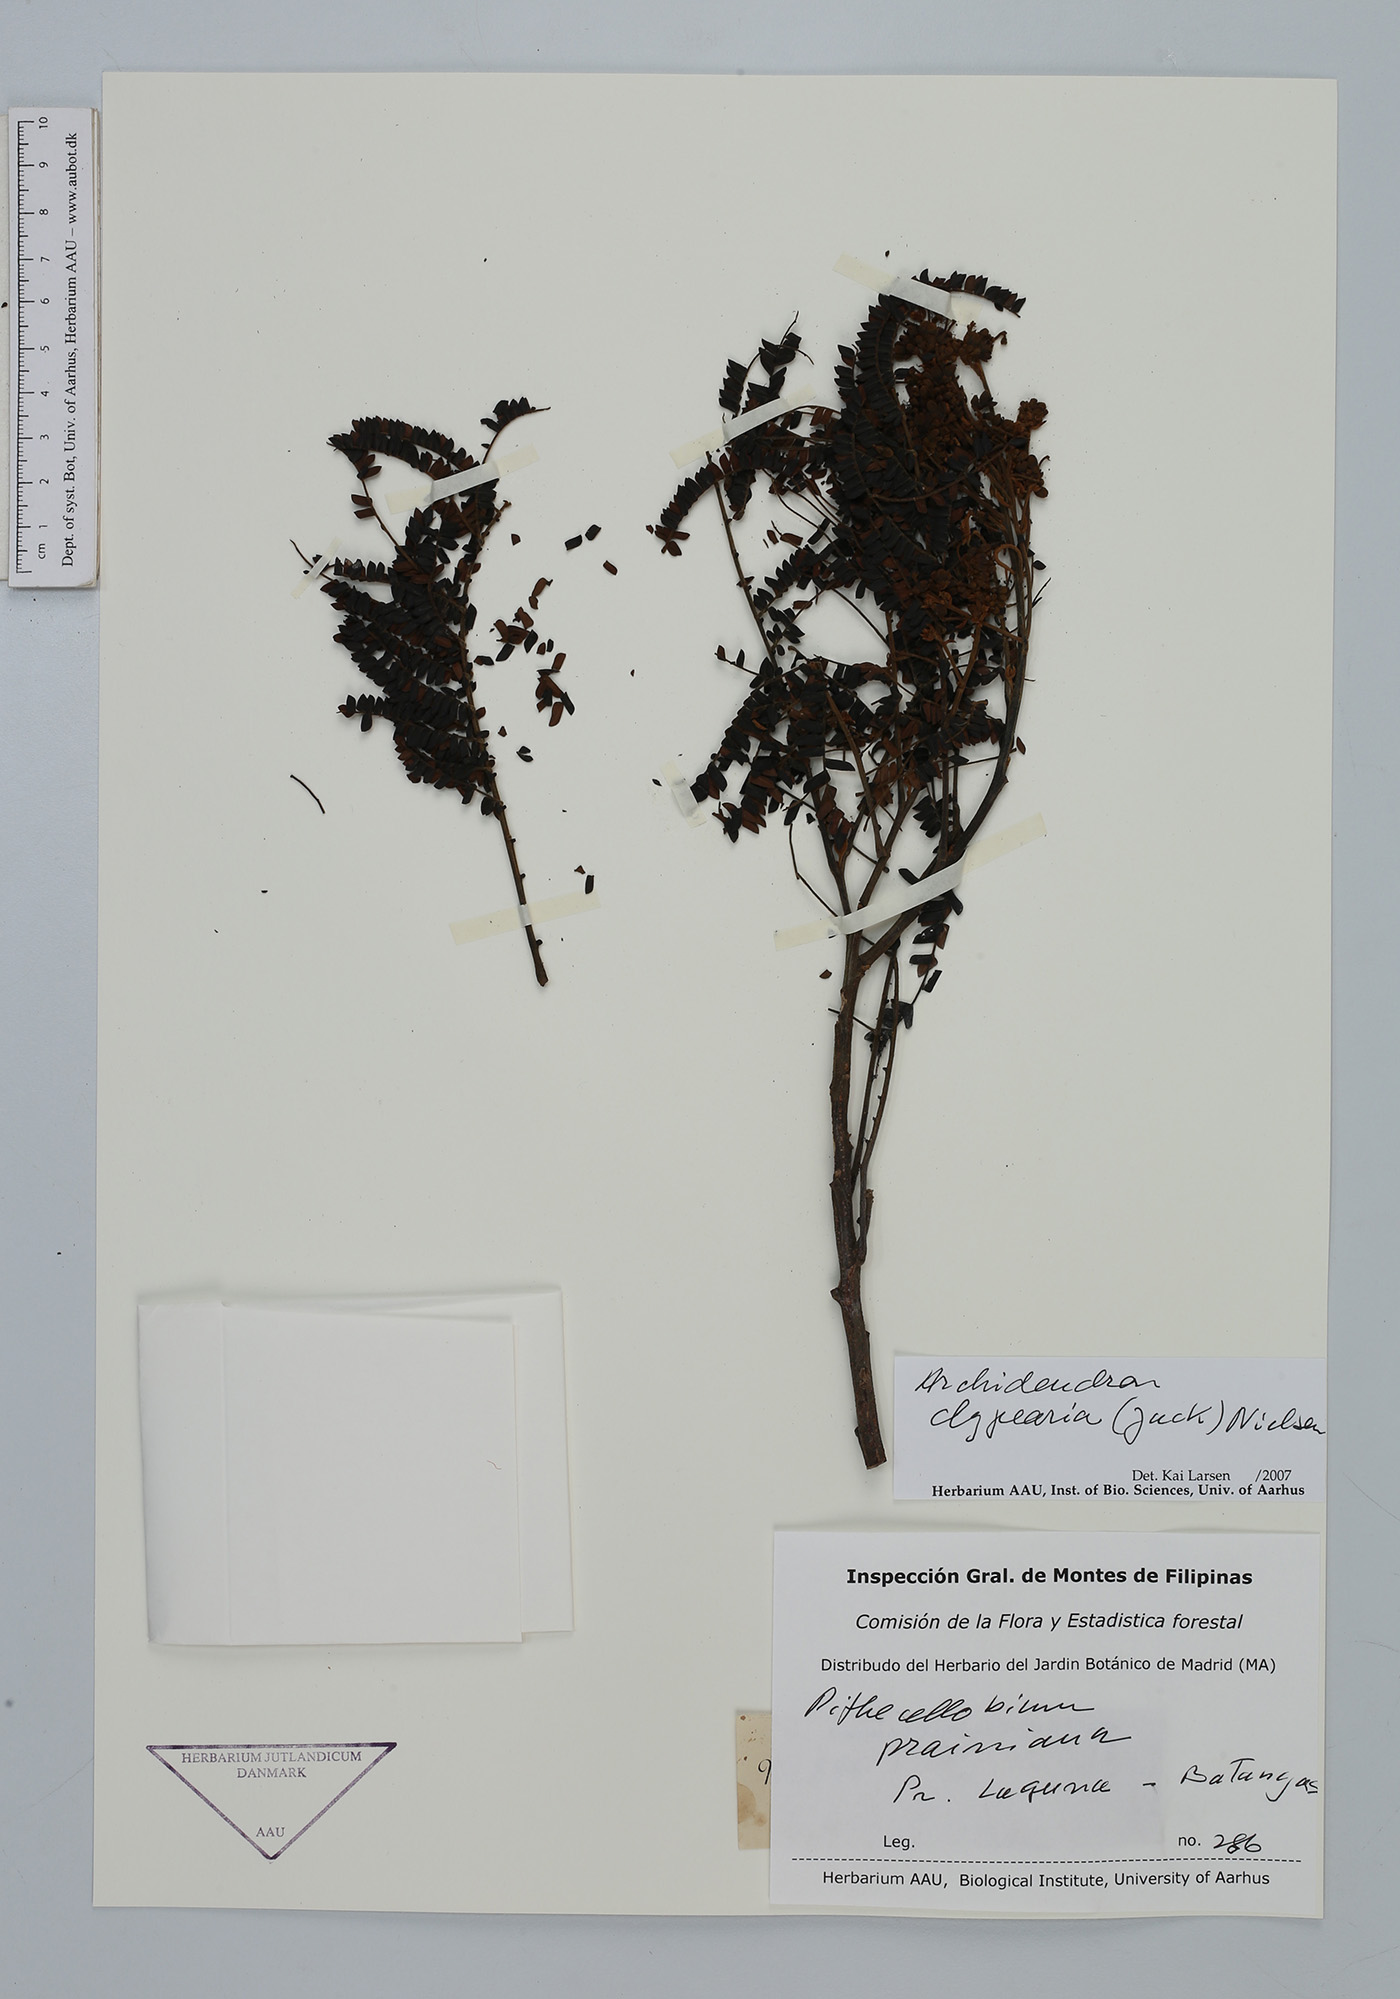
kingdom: Plantae
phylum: Tracheophyta
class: Magnoliopsida
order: Fabales
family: Fabaceae
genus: Archidendron
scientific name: Archidendron clypearia
